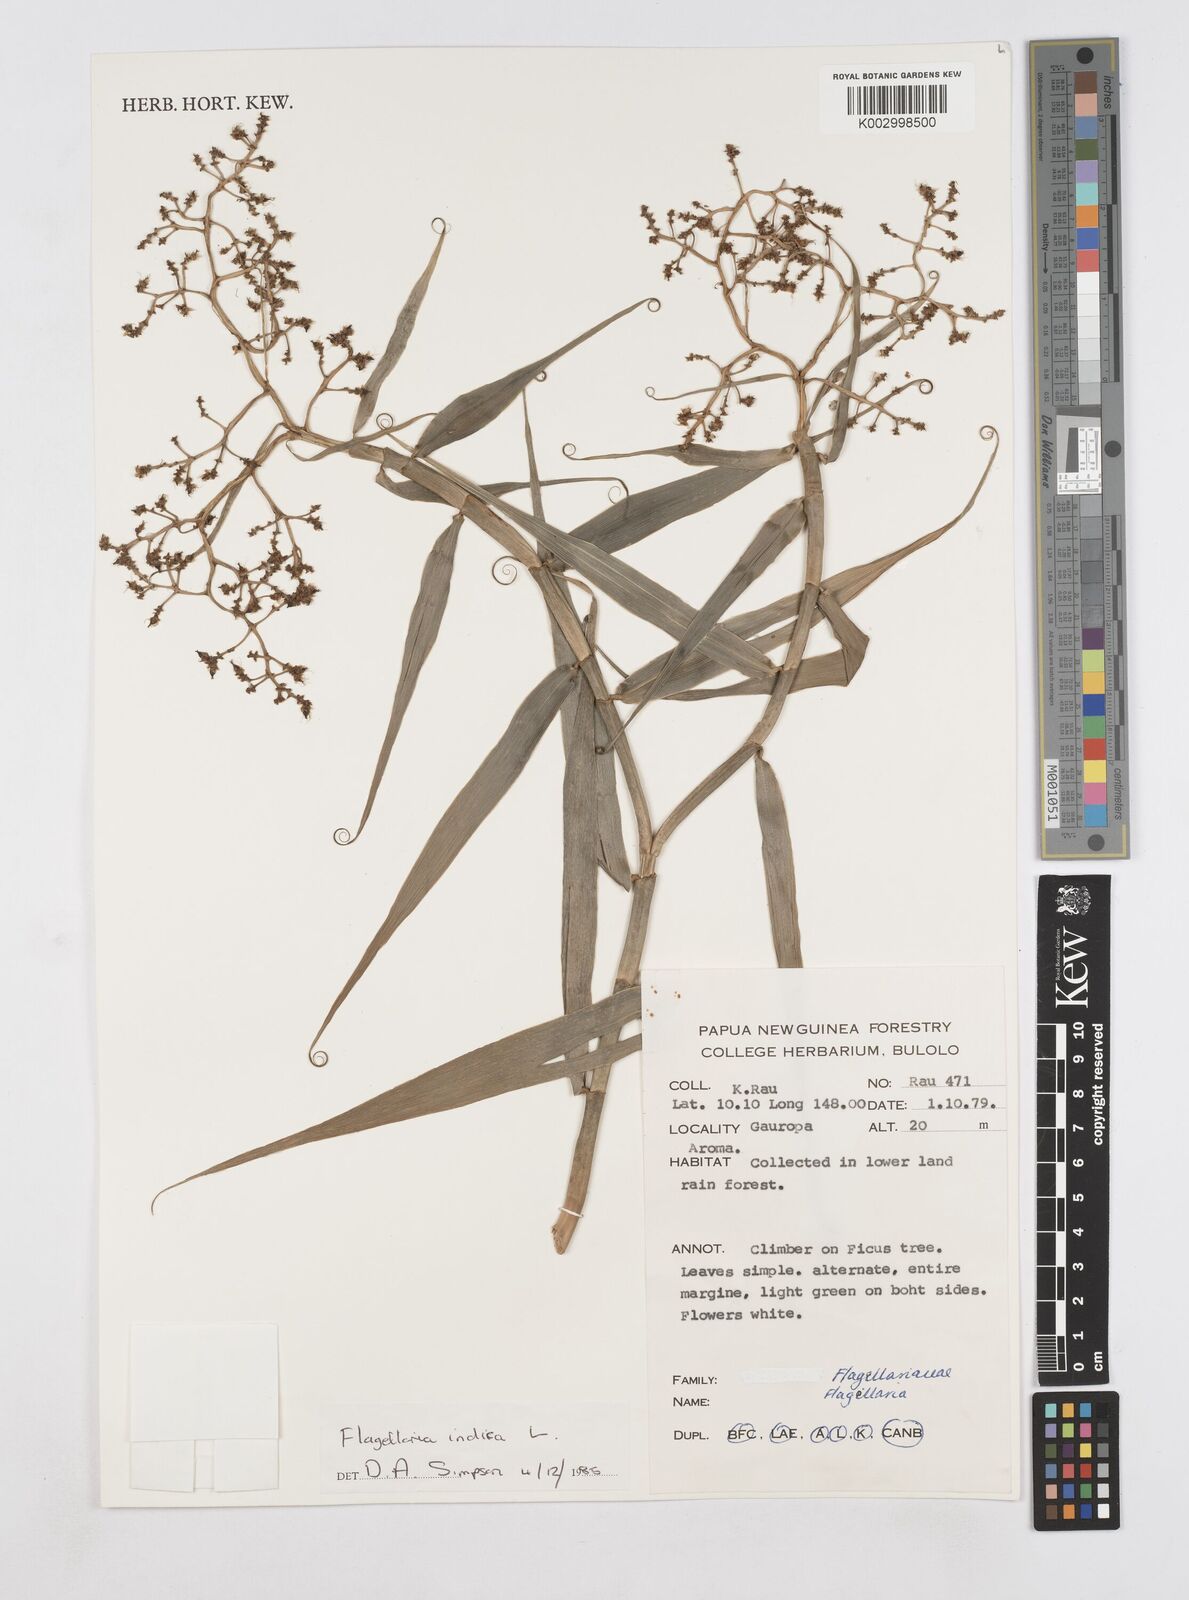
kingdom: Plantae
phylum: Tracheophyta
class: Liliopsida
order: Poales
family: Flagellariaceae
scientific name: Flagellariaceae
